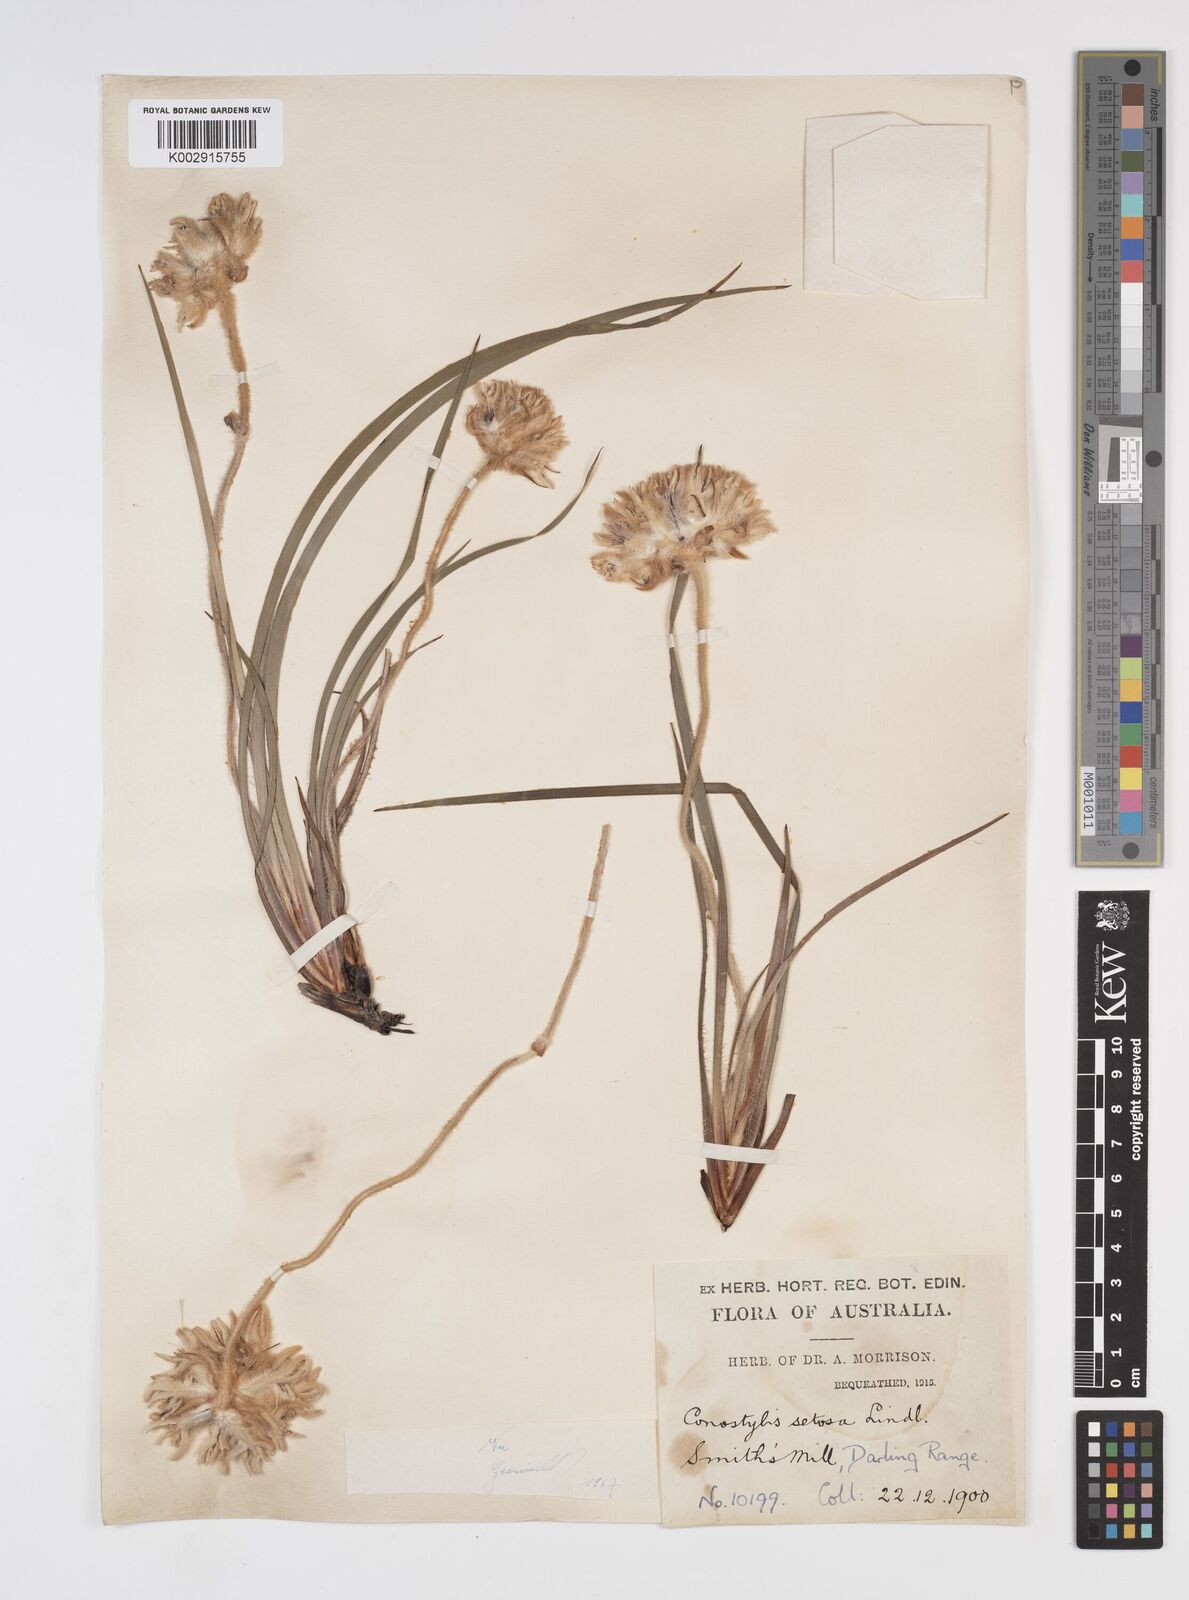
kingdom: Plantae
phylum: Tracheophyta
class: Liliopsida
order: Commelinales
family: Haemodoraceae
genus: Conostylis
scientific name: Conostylis setosa
